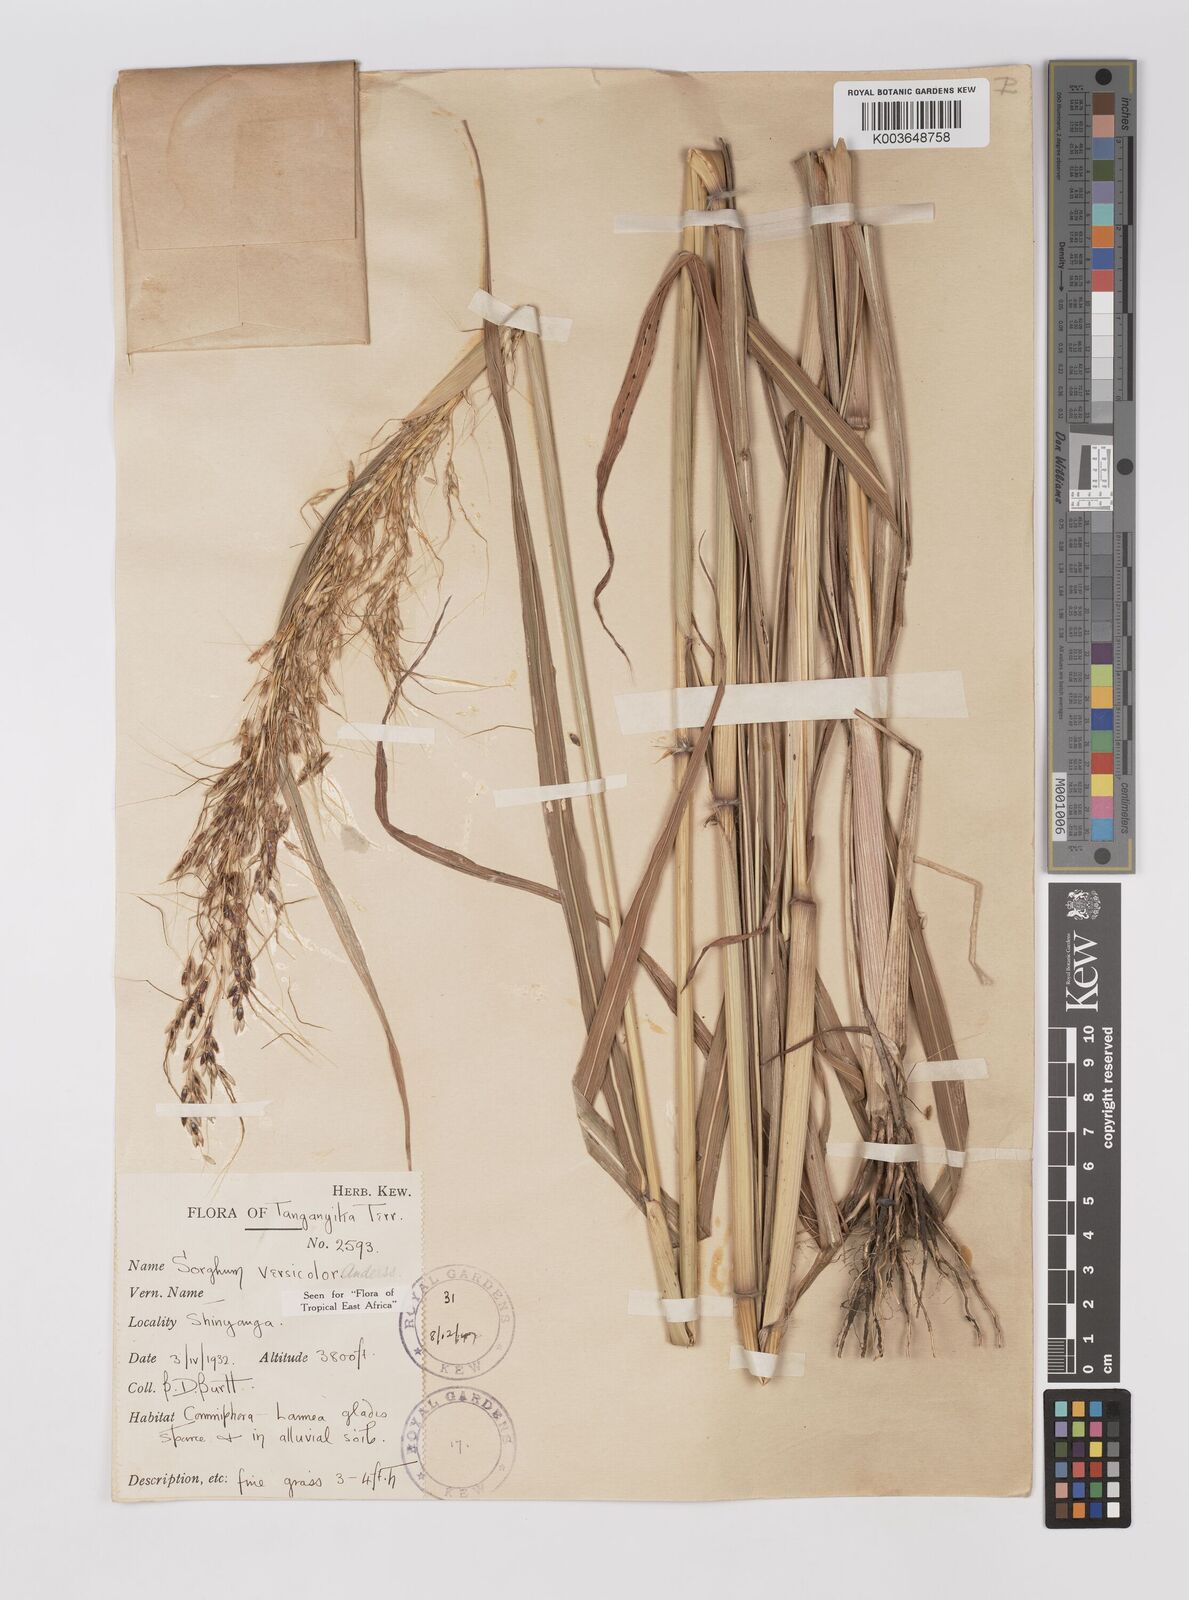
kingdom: Plantae
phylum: Tracheophyta
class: Liliopsida
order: Poales
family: Poaceae
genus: Sarga
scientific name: Sarga versicolor
